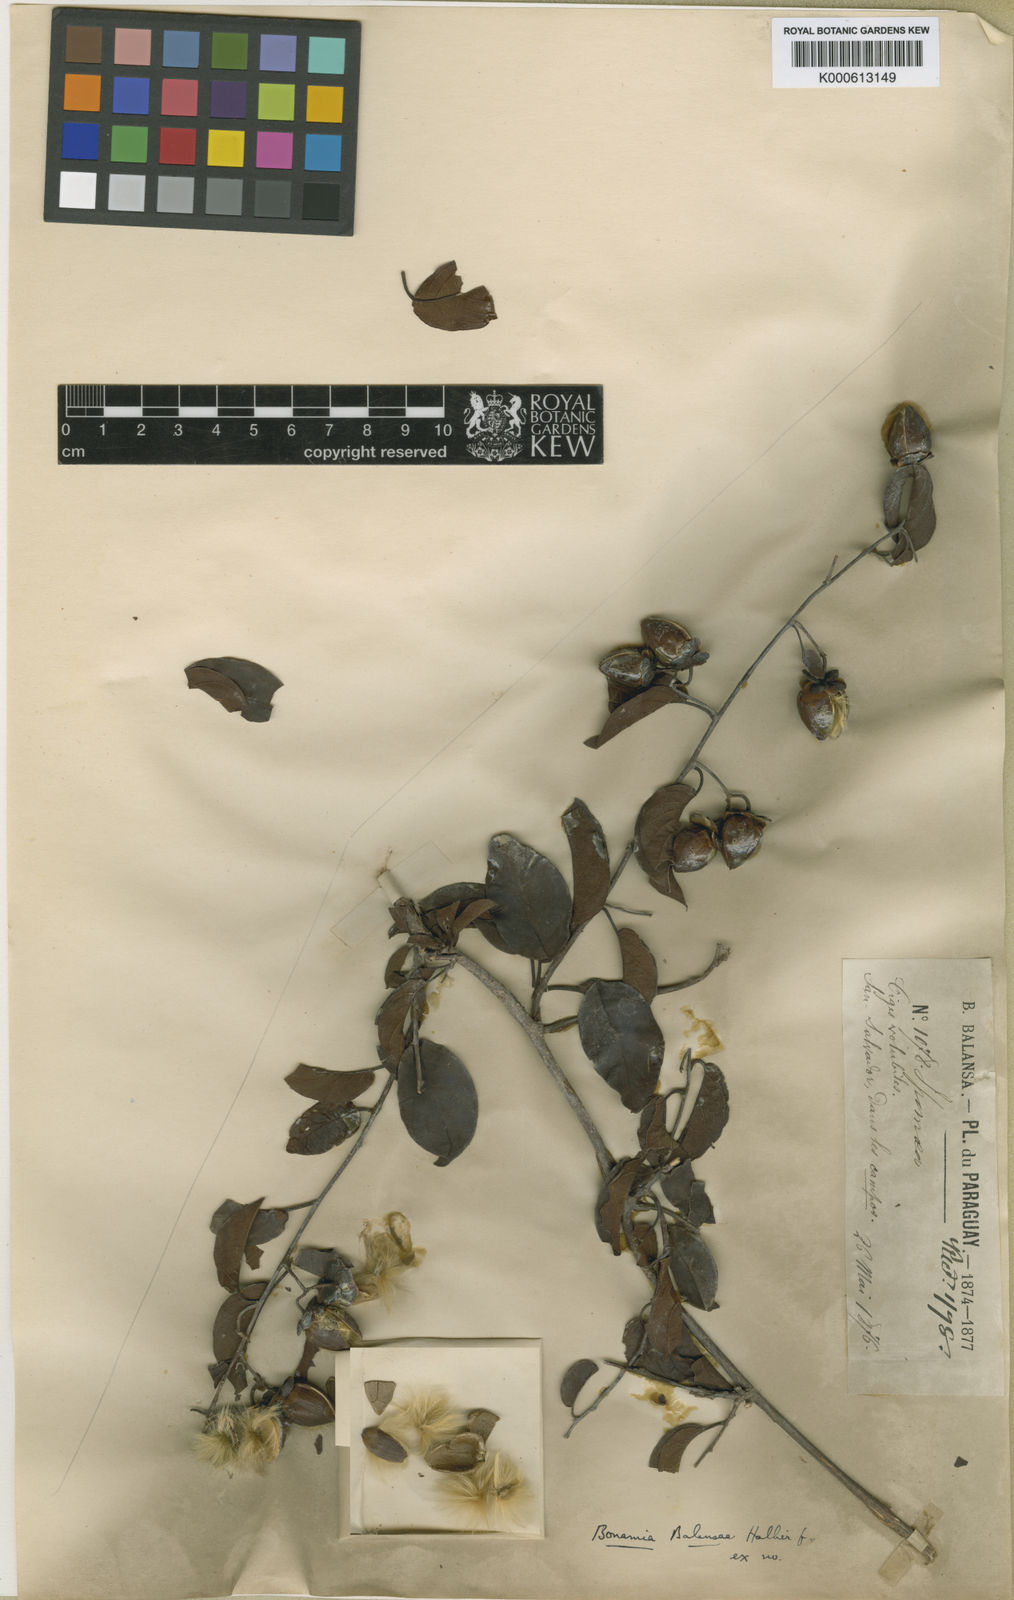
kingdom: Plantae
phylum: Tracheophyta
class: Magnoliopsida
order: Solanales
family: Convolvulaceae
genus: Bonamia
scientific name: Bonamia balansae
